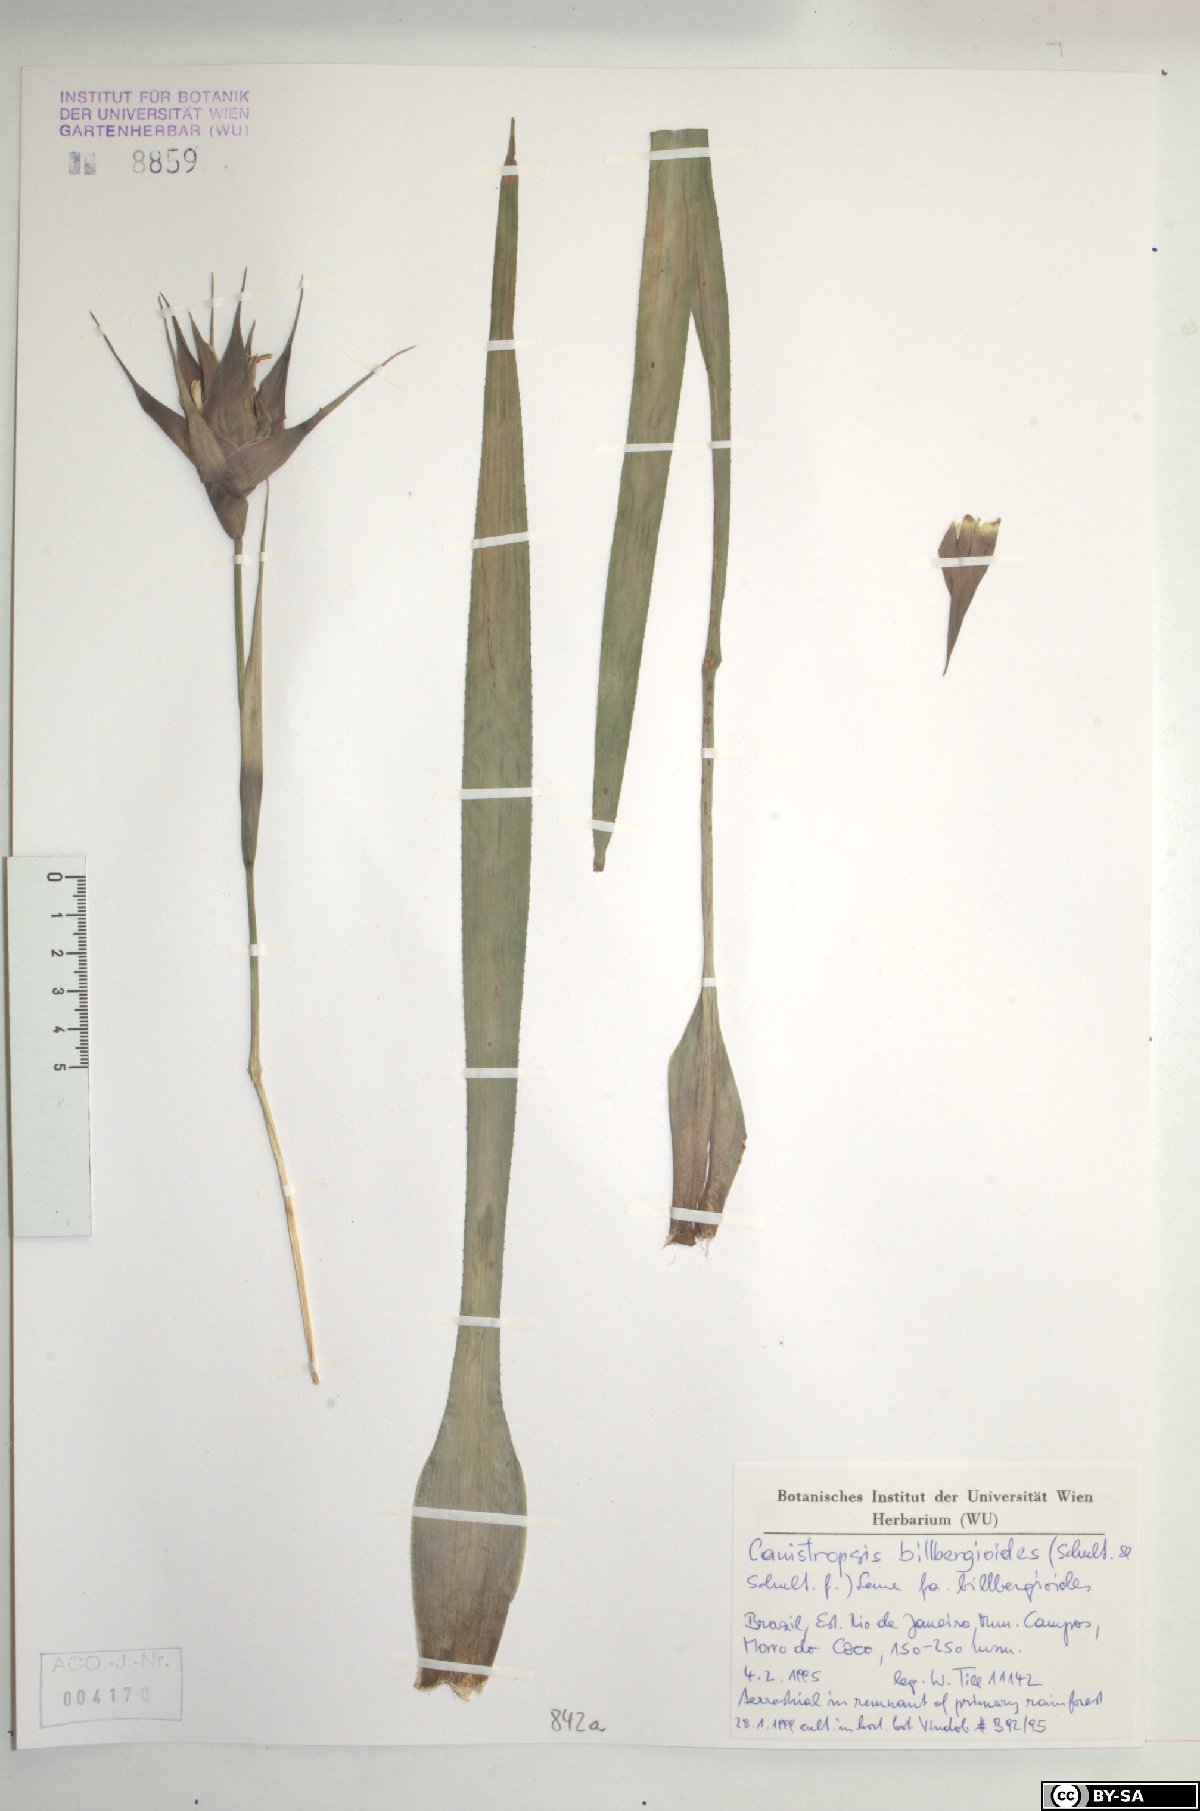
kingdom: Plantae
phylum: Tracheophyta
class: Liliopsida
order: Poales
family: Bromeliaceae
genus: Canistropsis
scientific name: Canistropsis billbergioides
